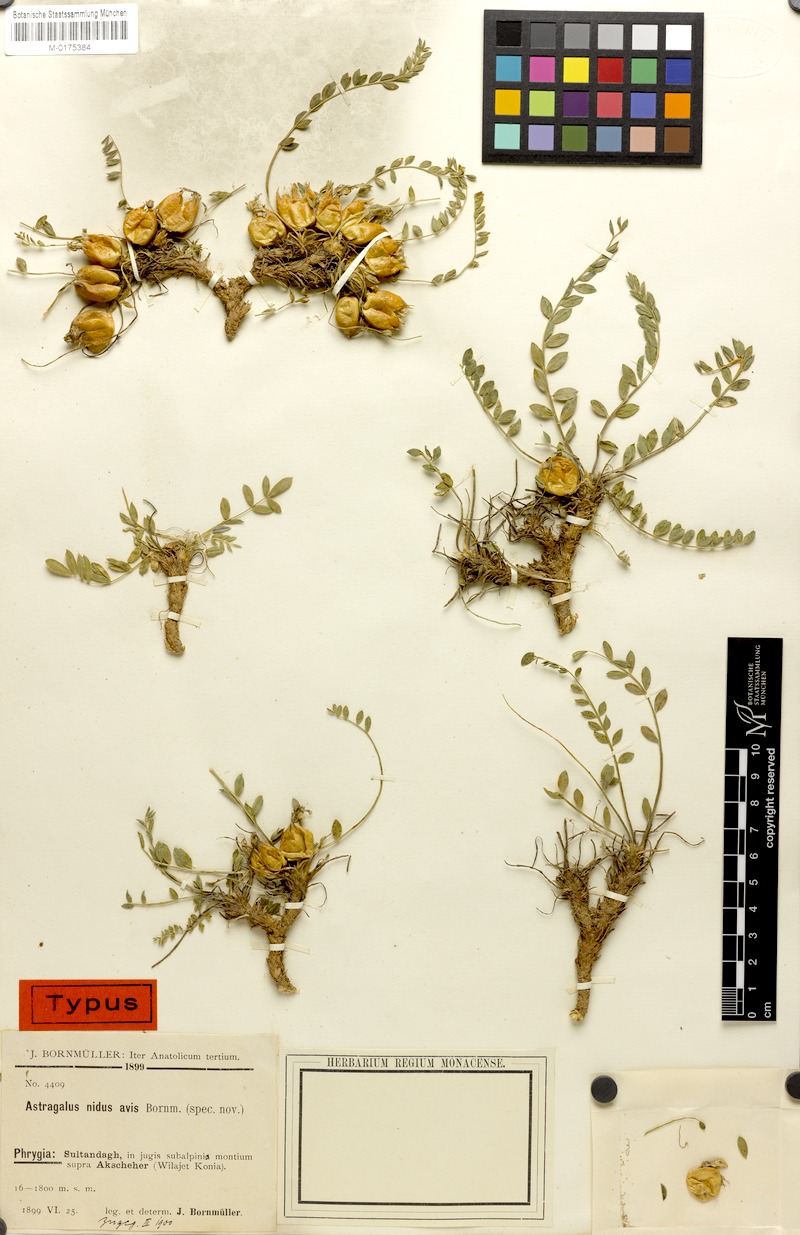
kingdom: Plantae
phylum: Tracheophyta
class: Magnoliopsida
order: Fabales
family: Fabaceae
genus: Astragalus
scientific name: Astragalus physocalyx
